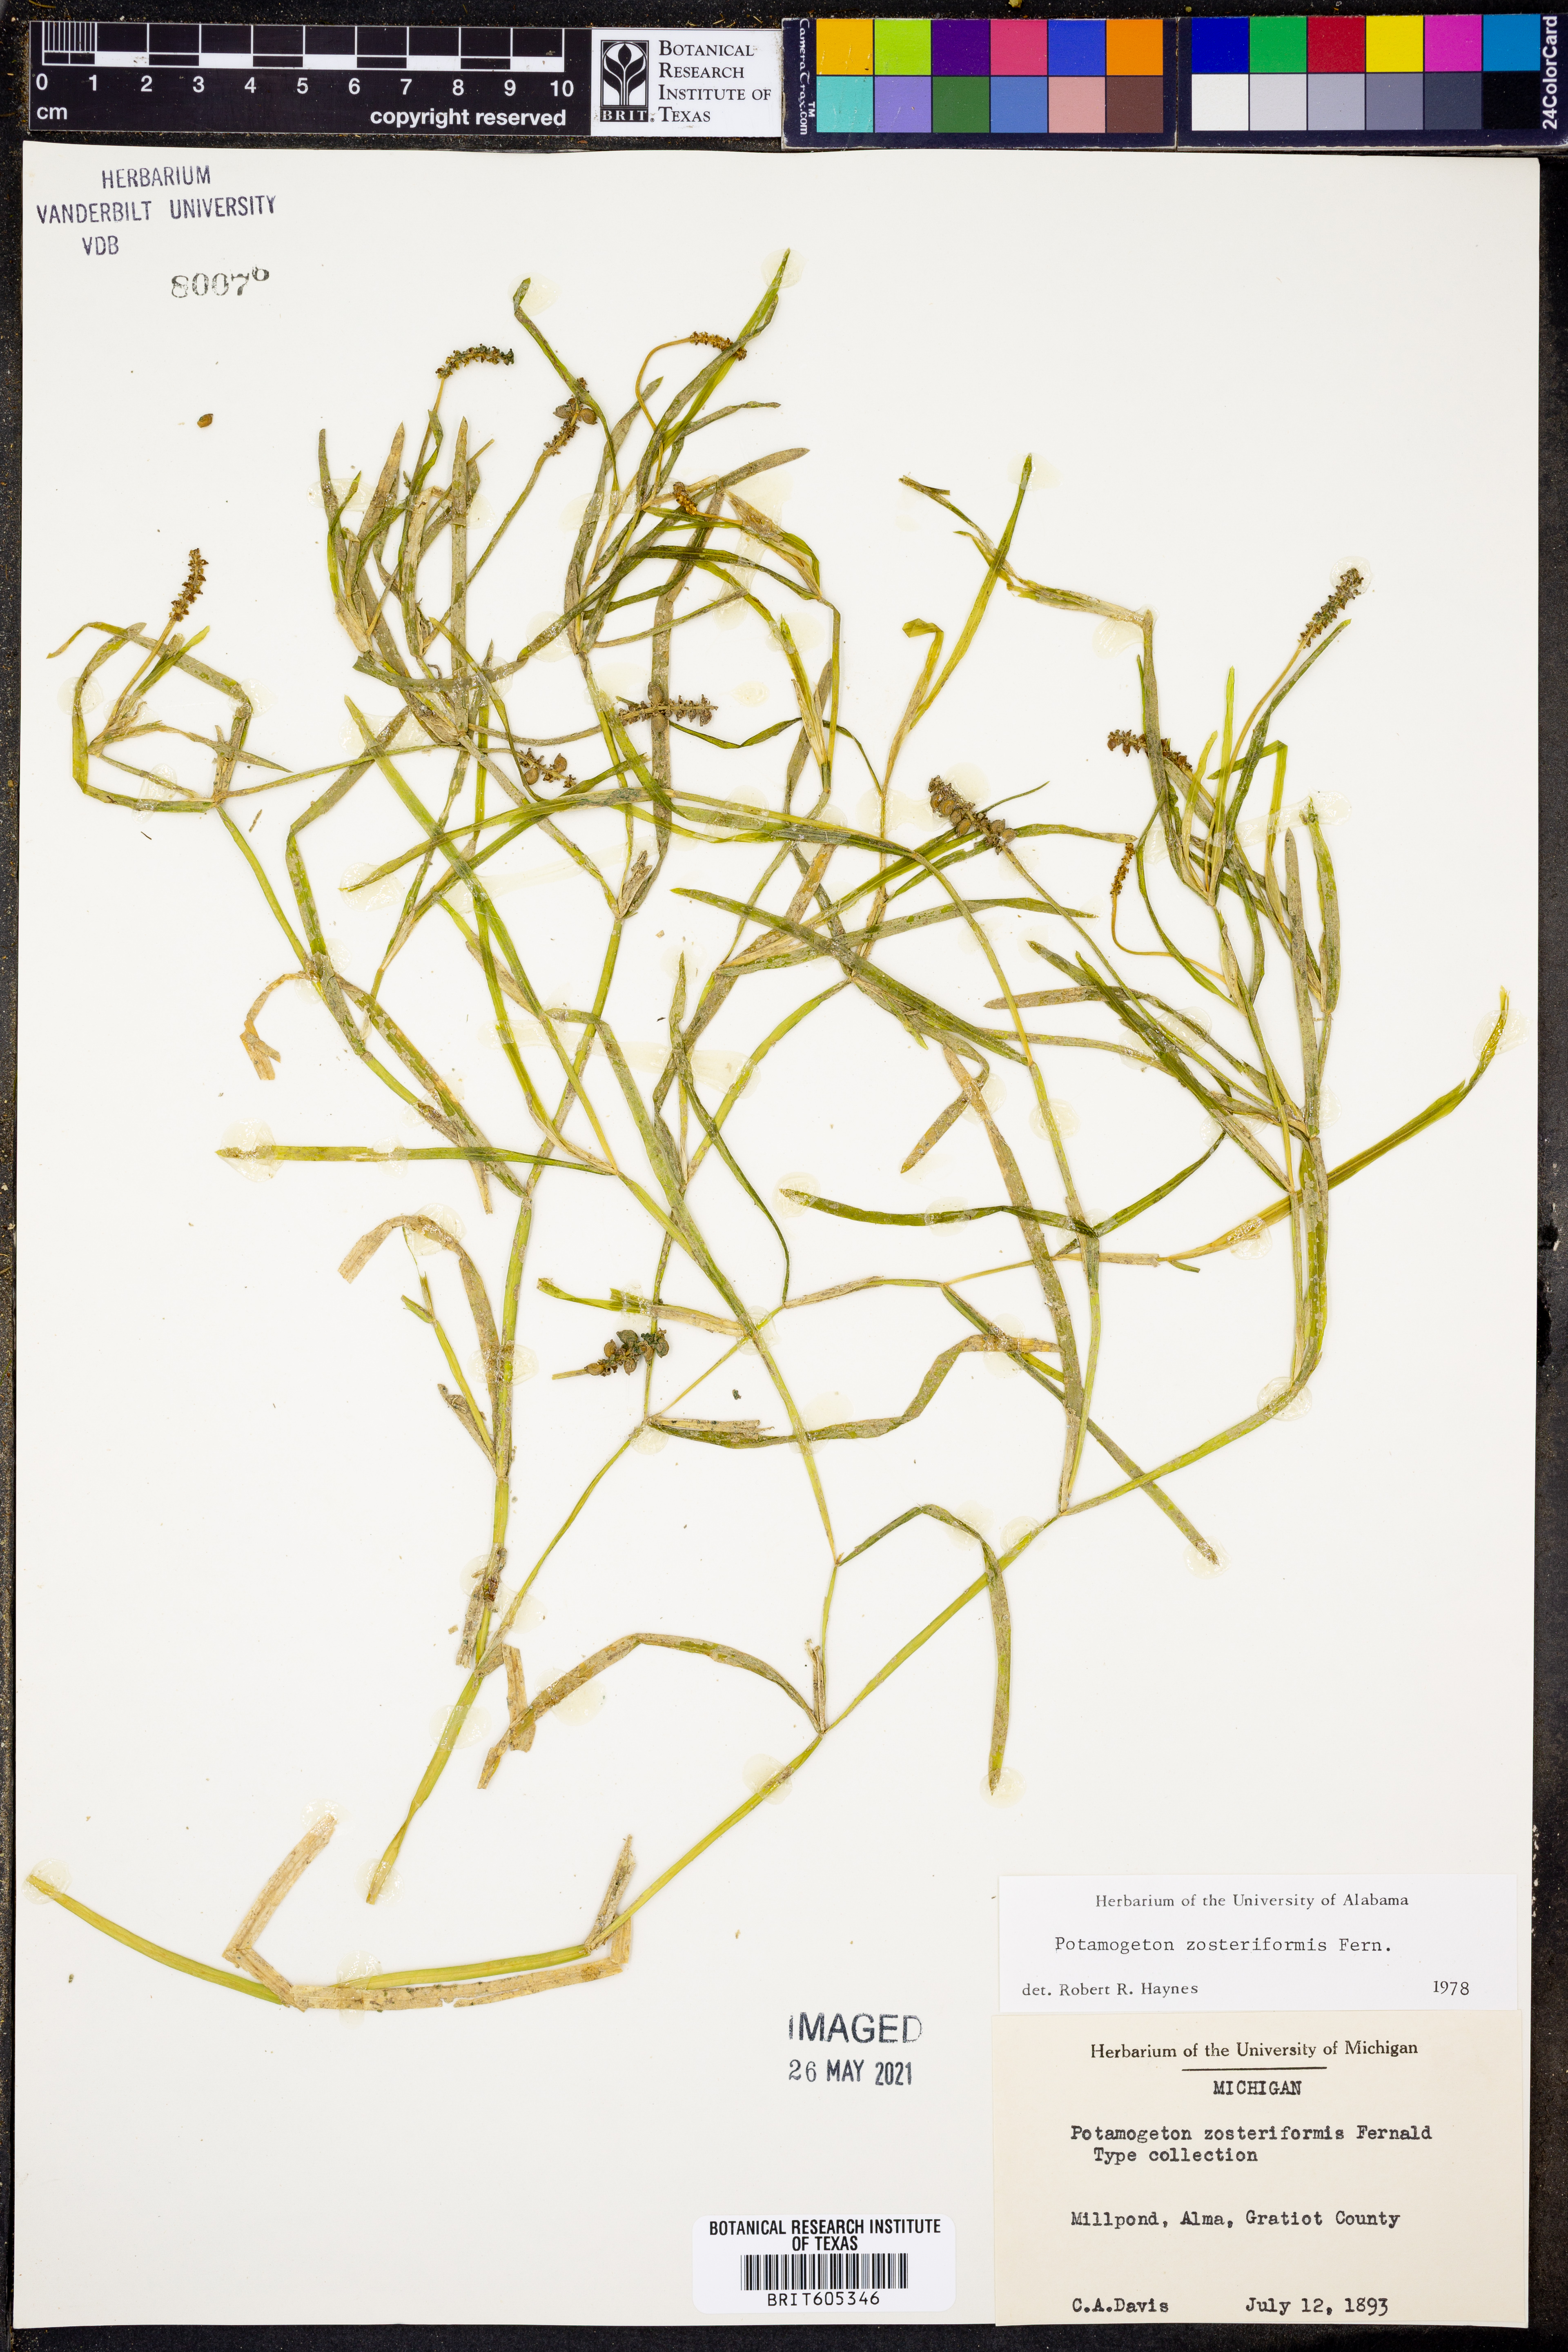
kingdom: Plantae
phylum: Tracheophyta
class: Liliopsida
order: Alismatales
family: Potamogetonaceae
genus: Potamogeton
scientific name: Potamogeton zosteriformis
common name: Eelgrass pondweed
